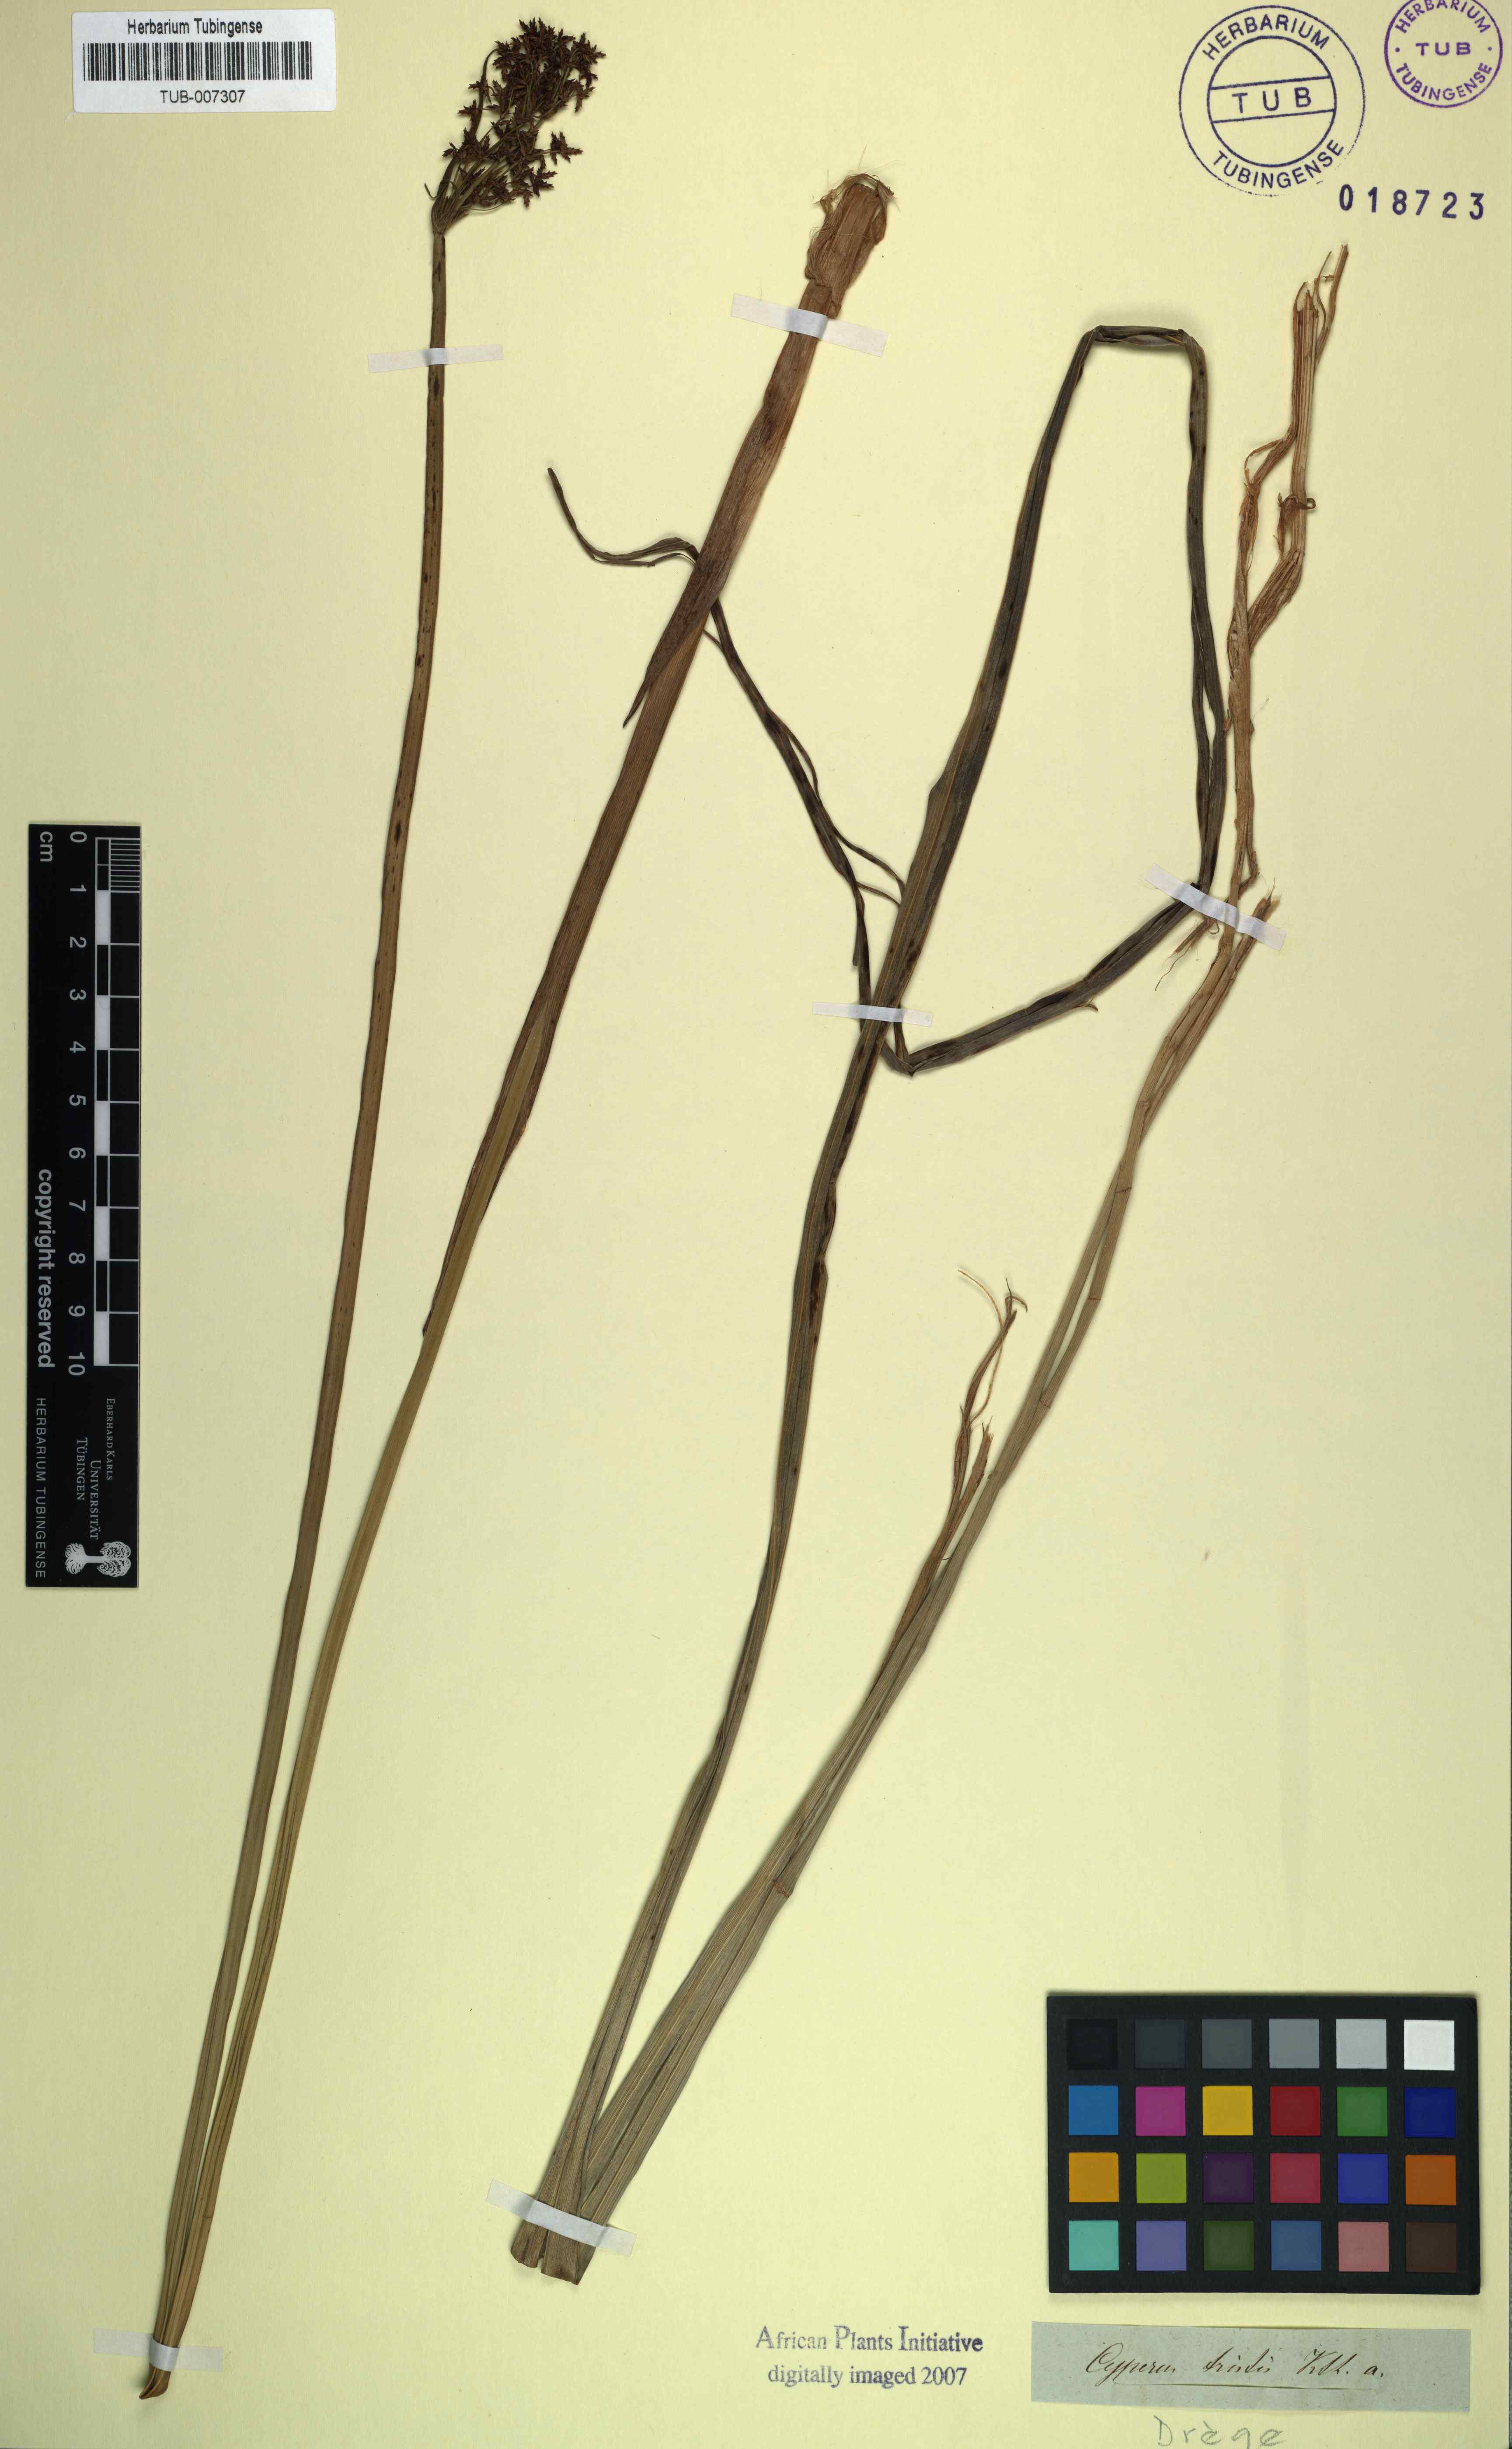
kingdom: Plantae
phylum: Tracheophyta
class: Liliopsida
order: Poales
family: Cyperaceae
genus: Cyperus
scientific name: Cyperus denudatus
